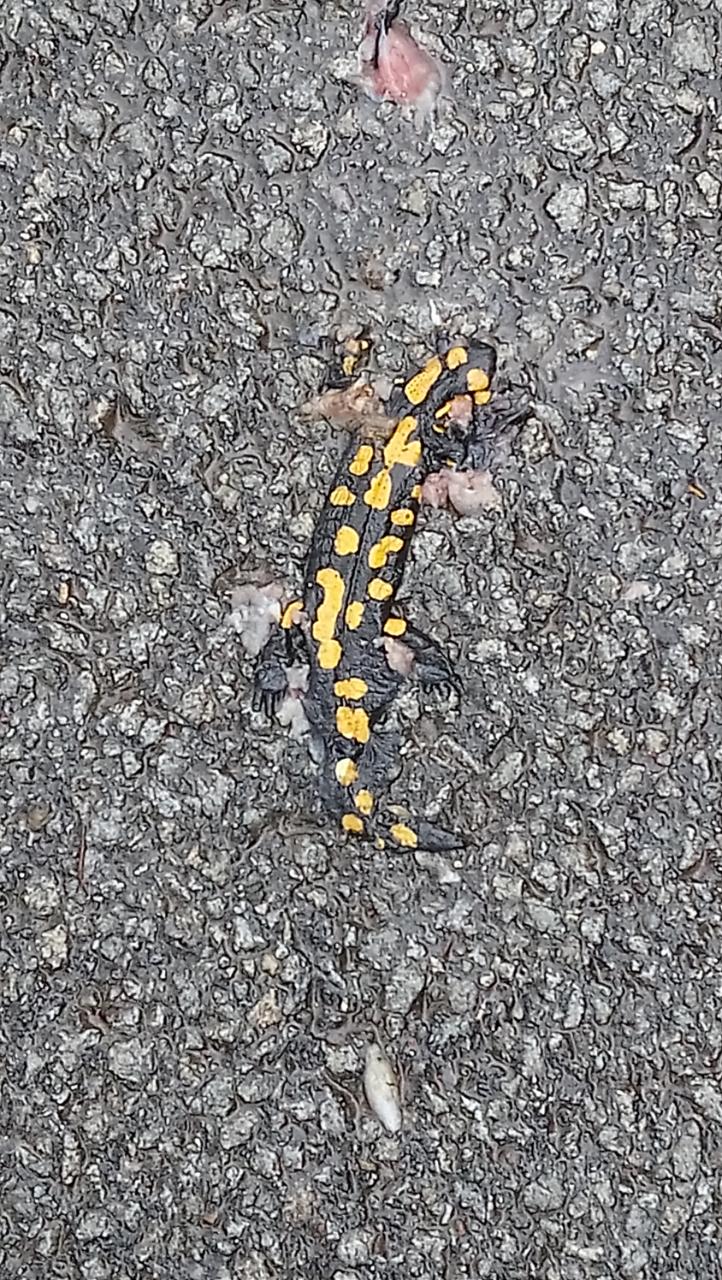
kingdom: Animalia
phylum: Chordata
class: Amphibia
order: Caudata
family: Salamandridae
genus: Salamandra
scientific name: Salamandra salamandra
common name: Fire salamander
